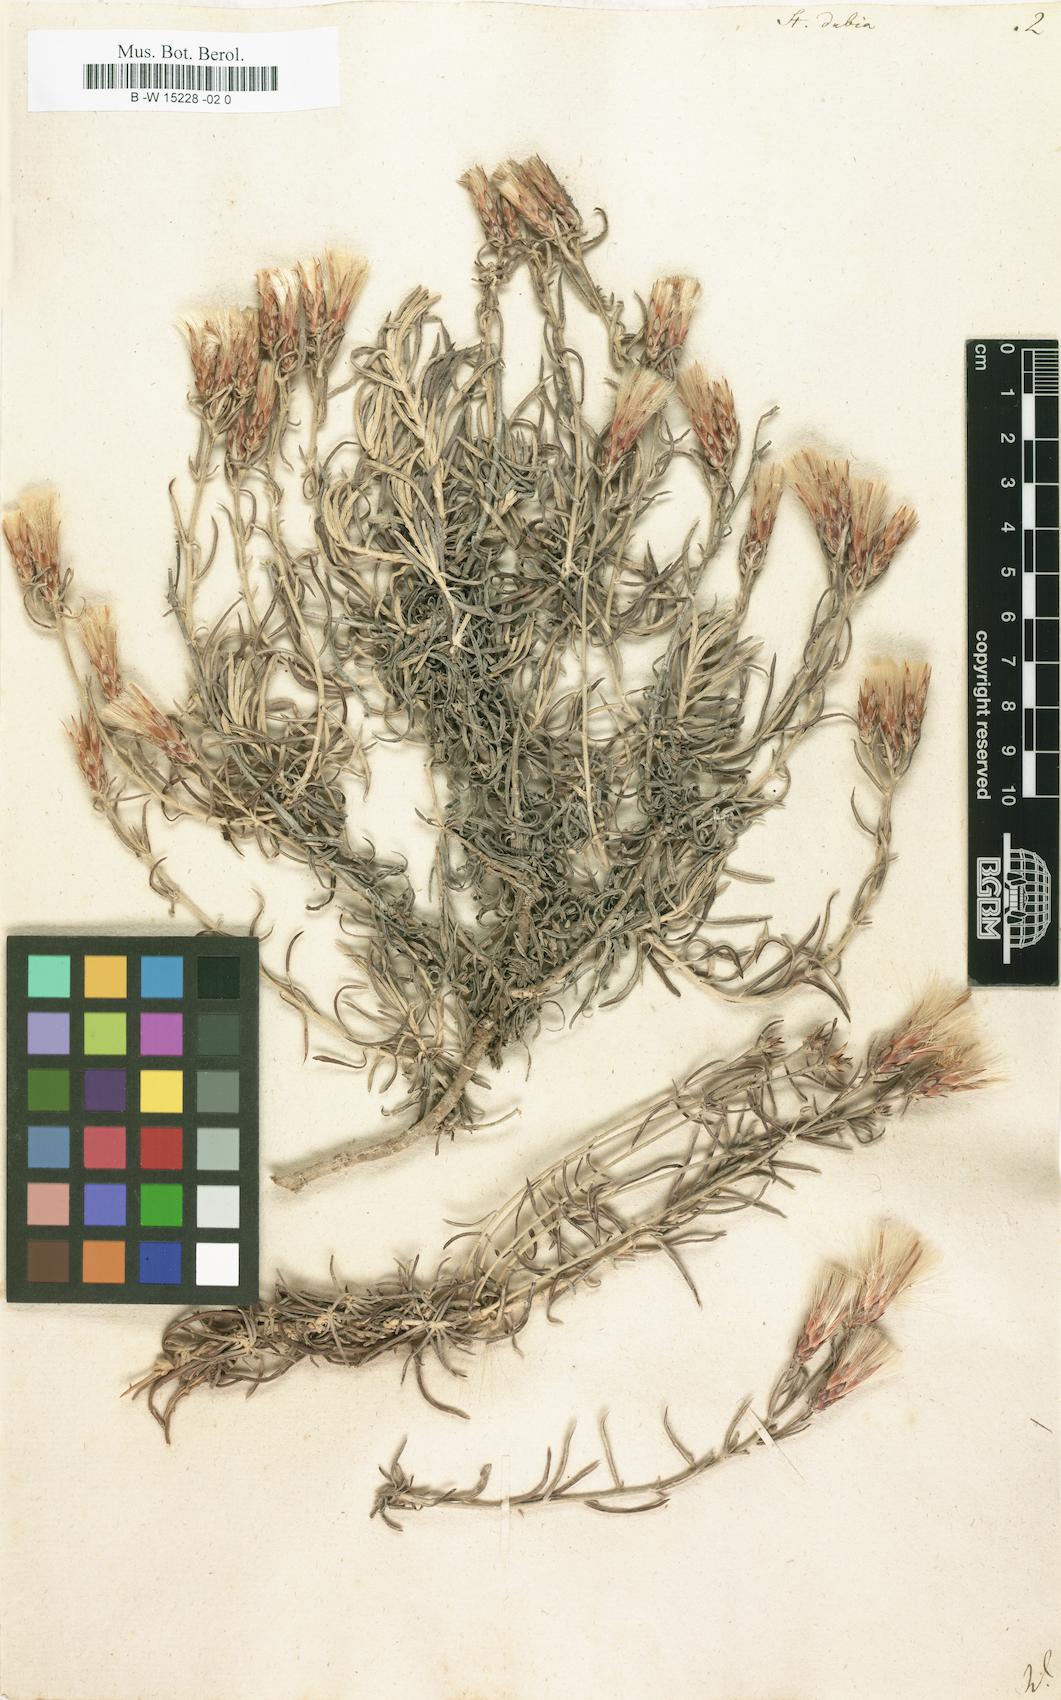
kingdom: Plantae
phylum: Tracheophyta
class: Magnoliopsida
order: Asterales
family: Asteraceae
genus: Staehelina
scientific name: Staehelina dubia
